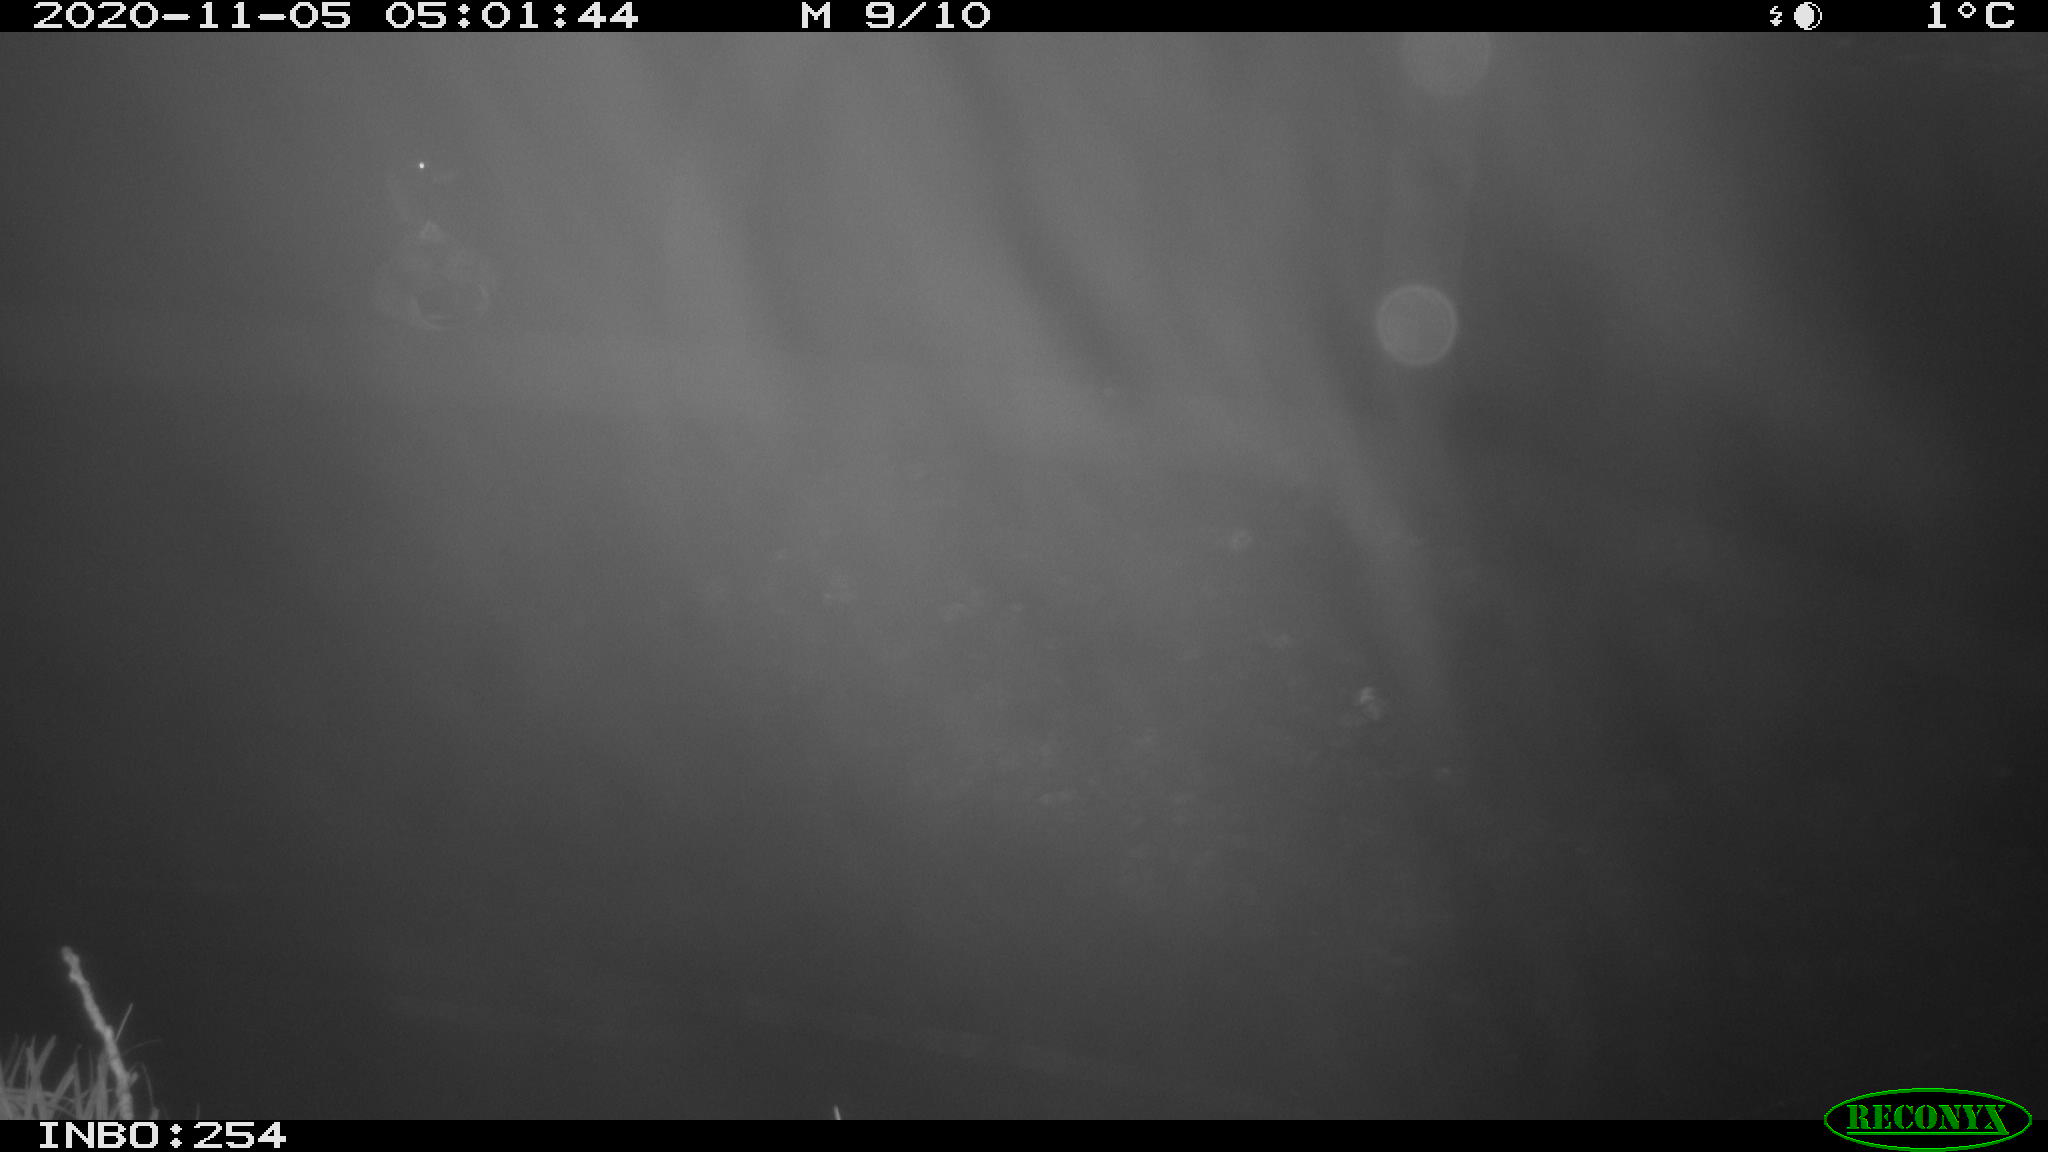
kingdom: Animalia
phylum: Chordata
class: Aves
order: Anseriformes
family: Anatidae
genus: Anas
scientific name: Anas platyrhynchos
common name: Mallard
